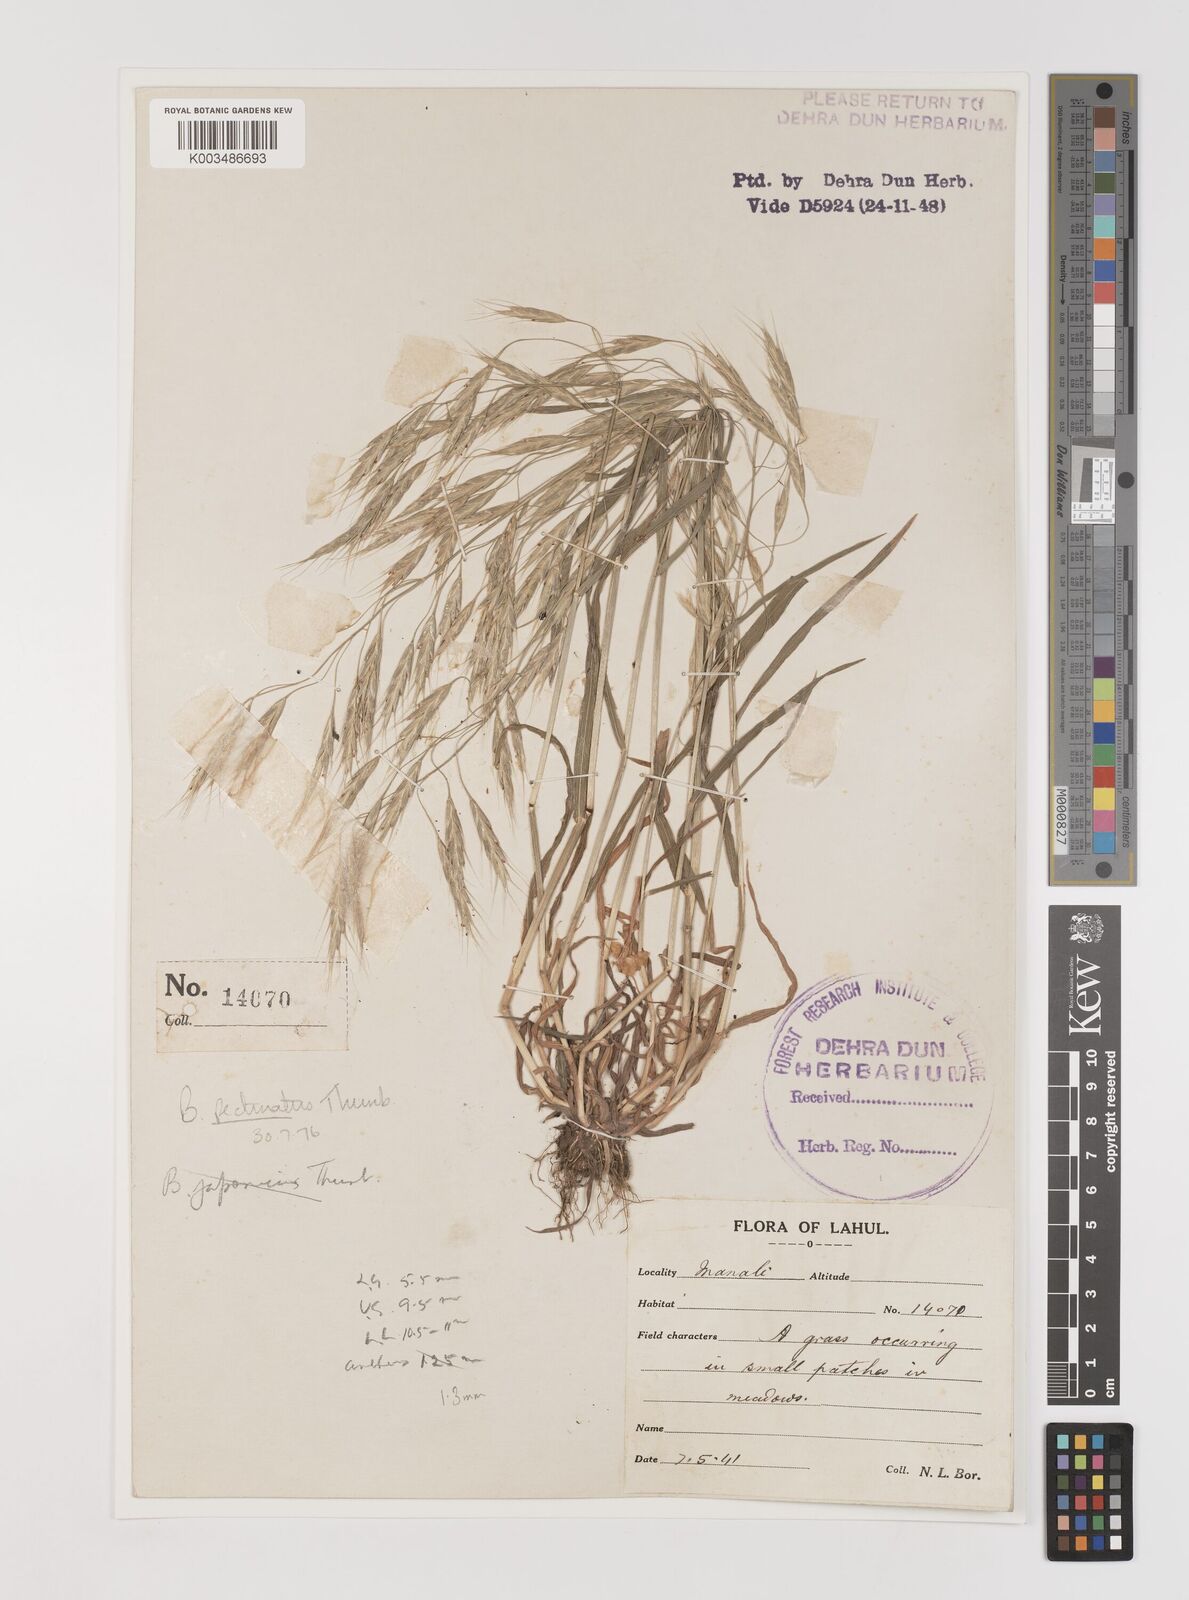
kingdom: Plantae
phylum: Tracheophyta
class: Liliopsida
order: Poales
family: Poaceae
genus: Bromus
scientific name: Bromus pectinatus
